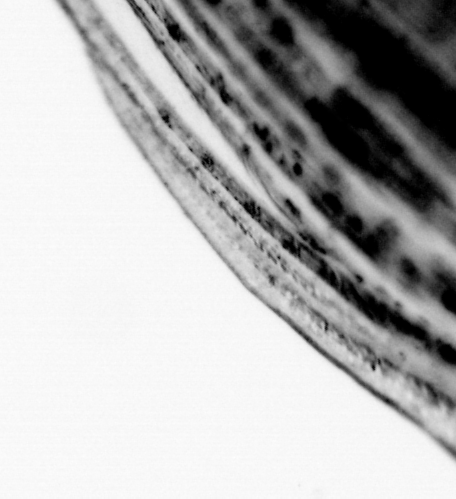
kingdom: Animalia
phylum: Chordata
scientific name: Chordata
